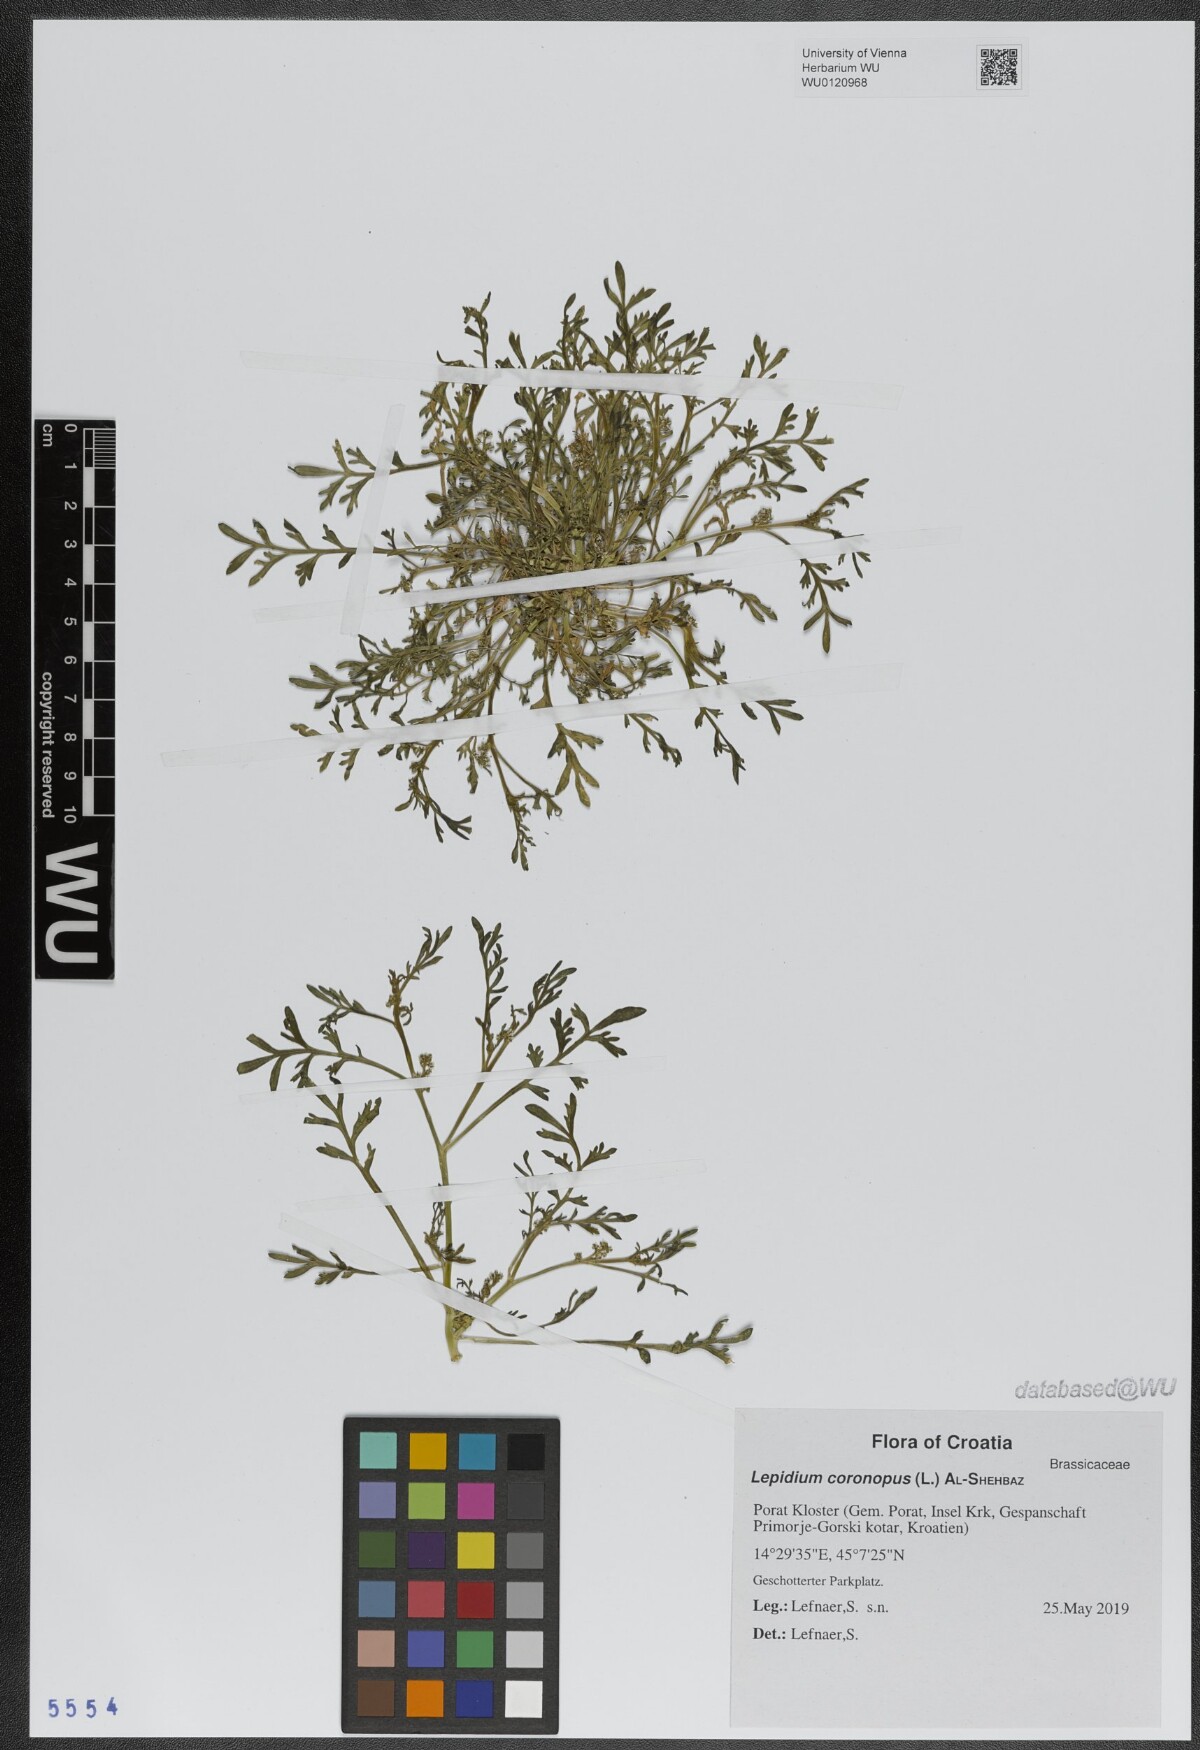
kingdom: Plantae
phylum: Tracheophyta
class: Magnoliopsida
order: Brassicales
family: Brassicaceae
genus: Lepidium
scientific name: Lepidium coronopus
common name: Greater swinecress
